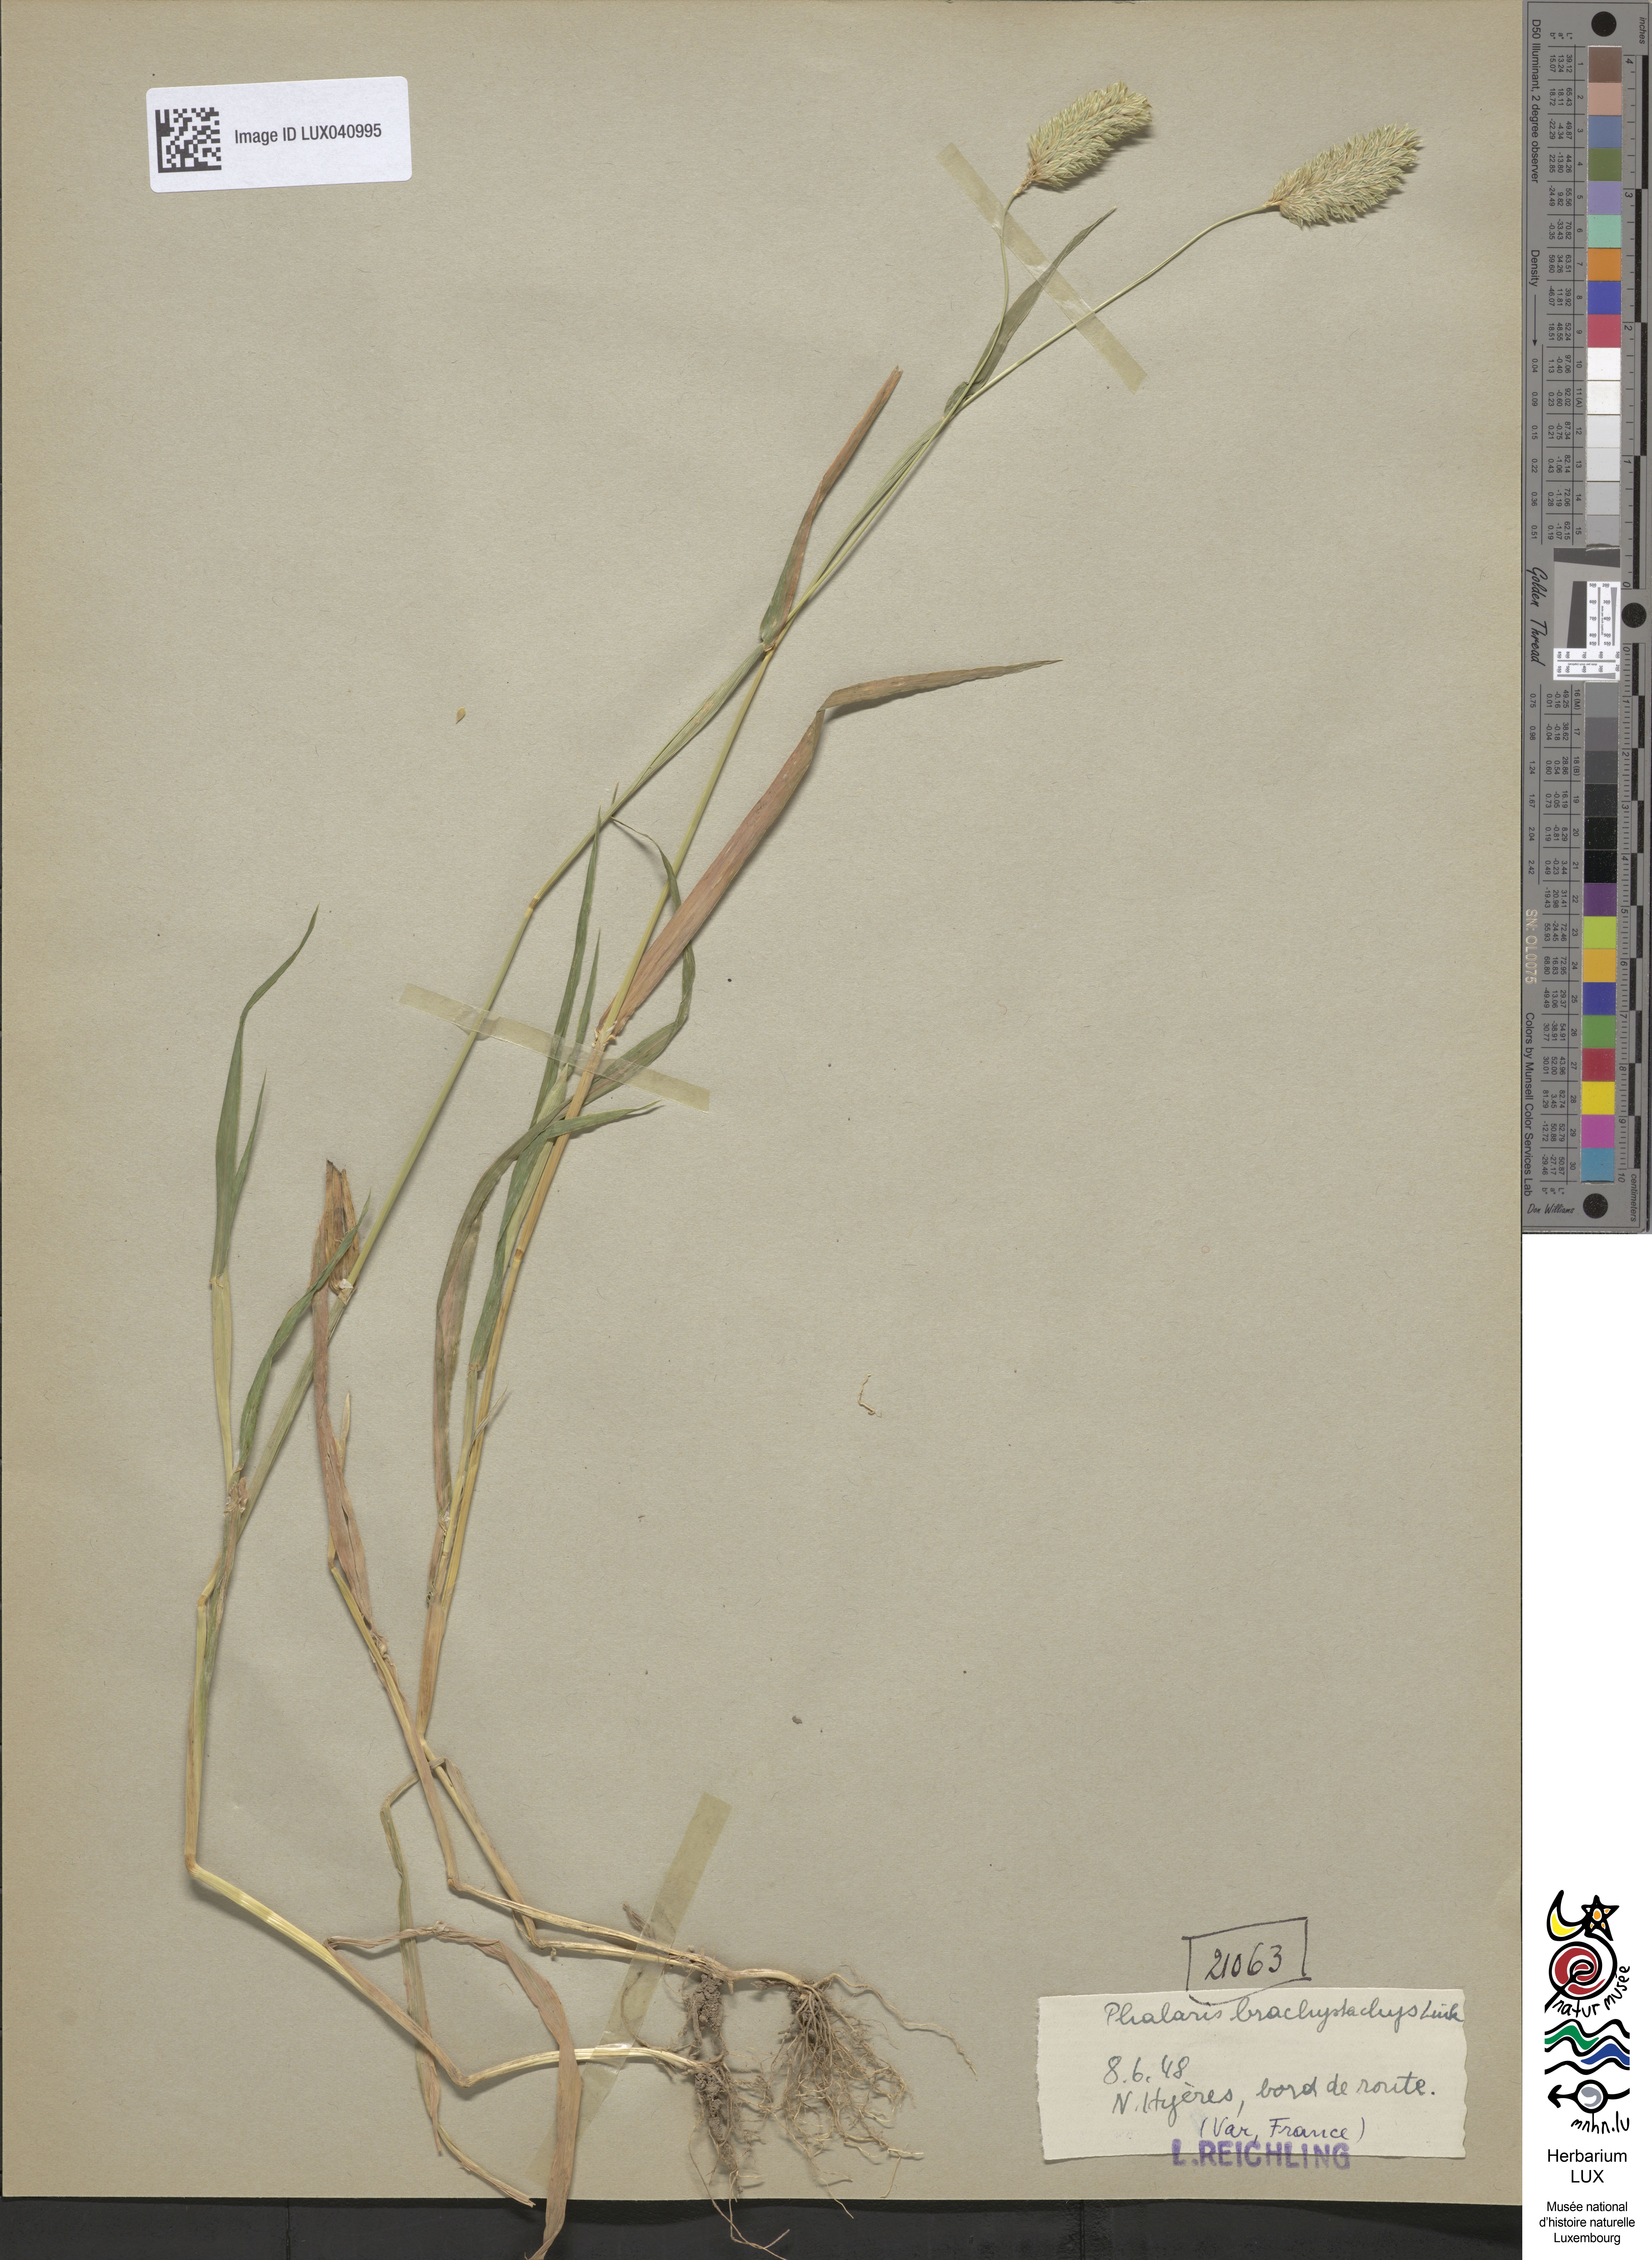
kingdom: Plantae
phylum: Tracheophyta
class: Liliopsida
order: Poales
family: Poaceae
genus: Phalaris
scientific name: Phalaris brachystachys
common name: Confused canary-grass
